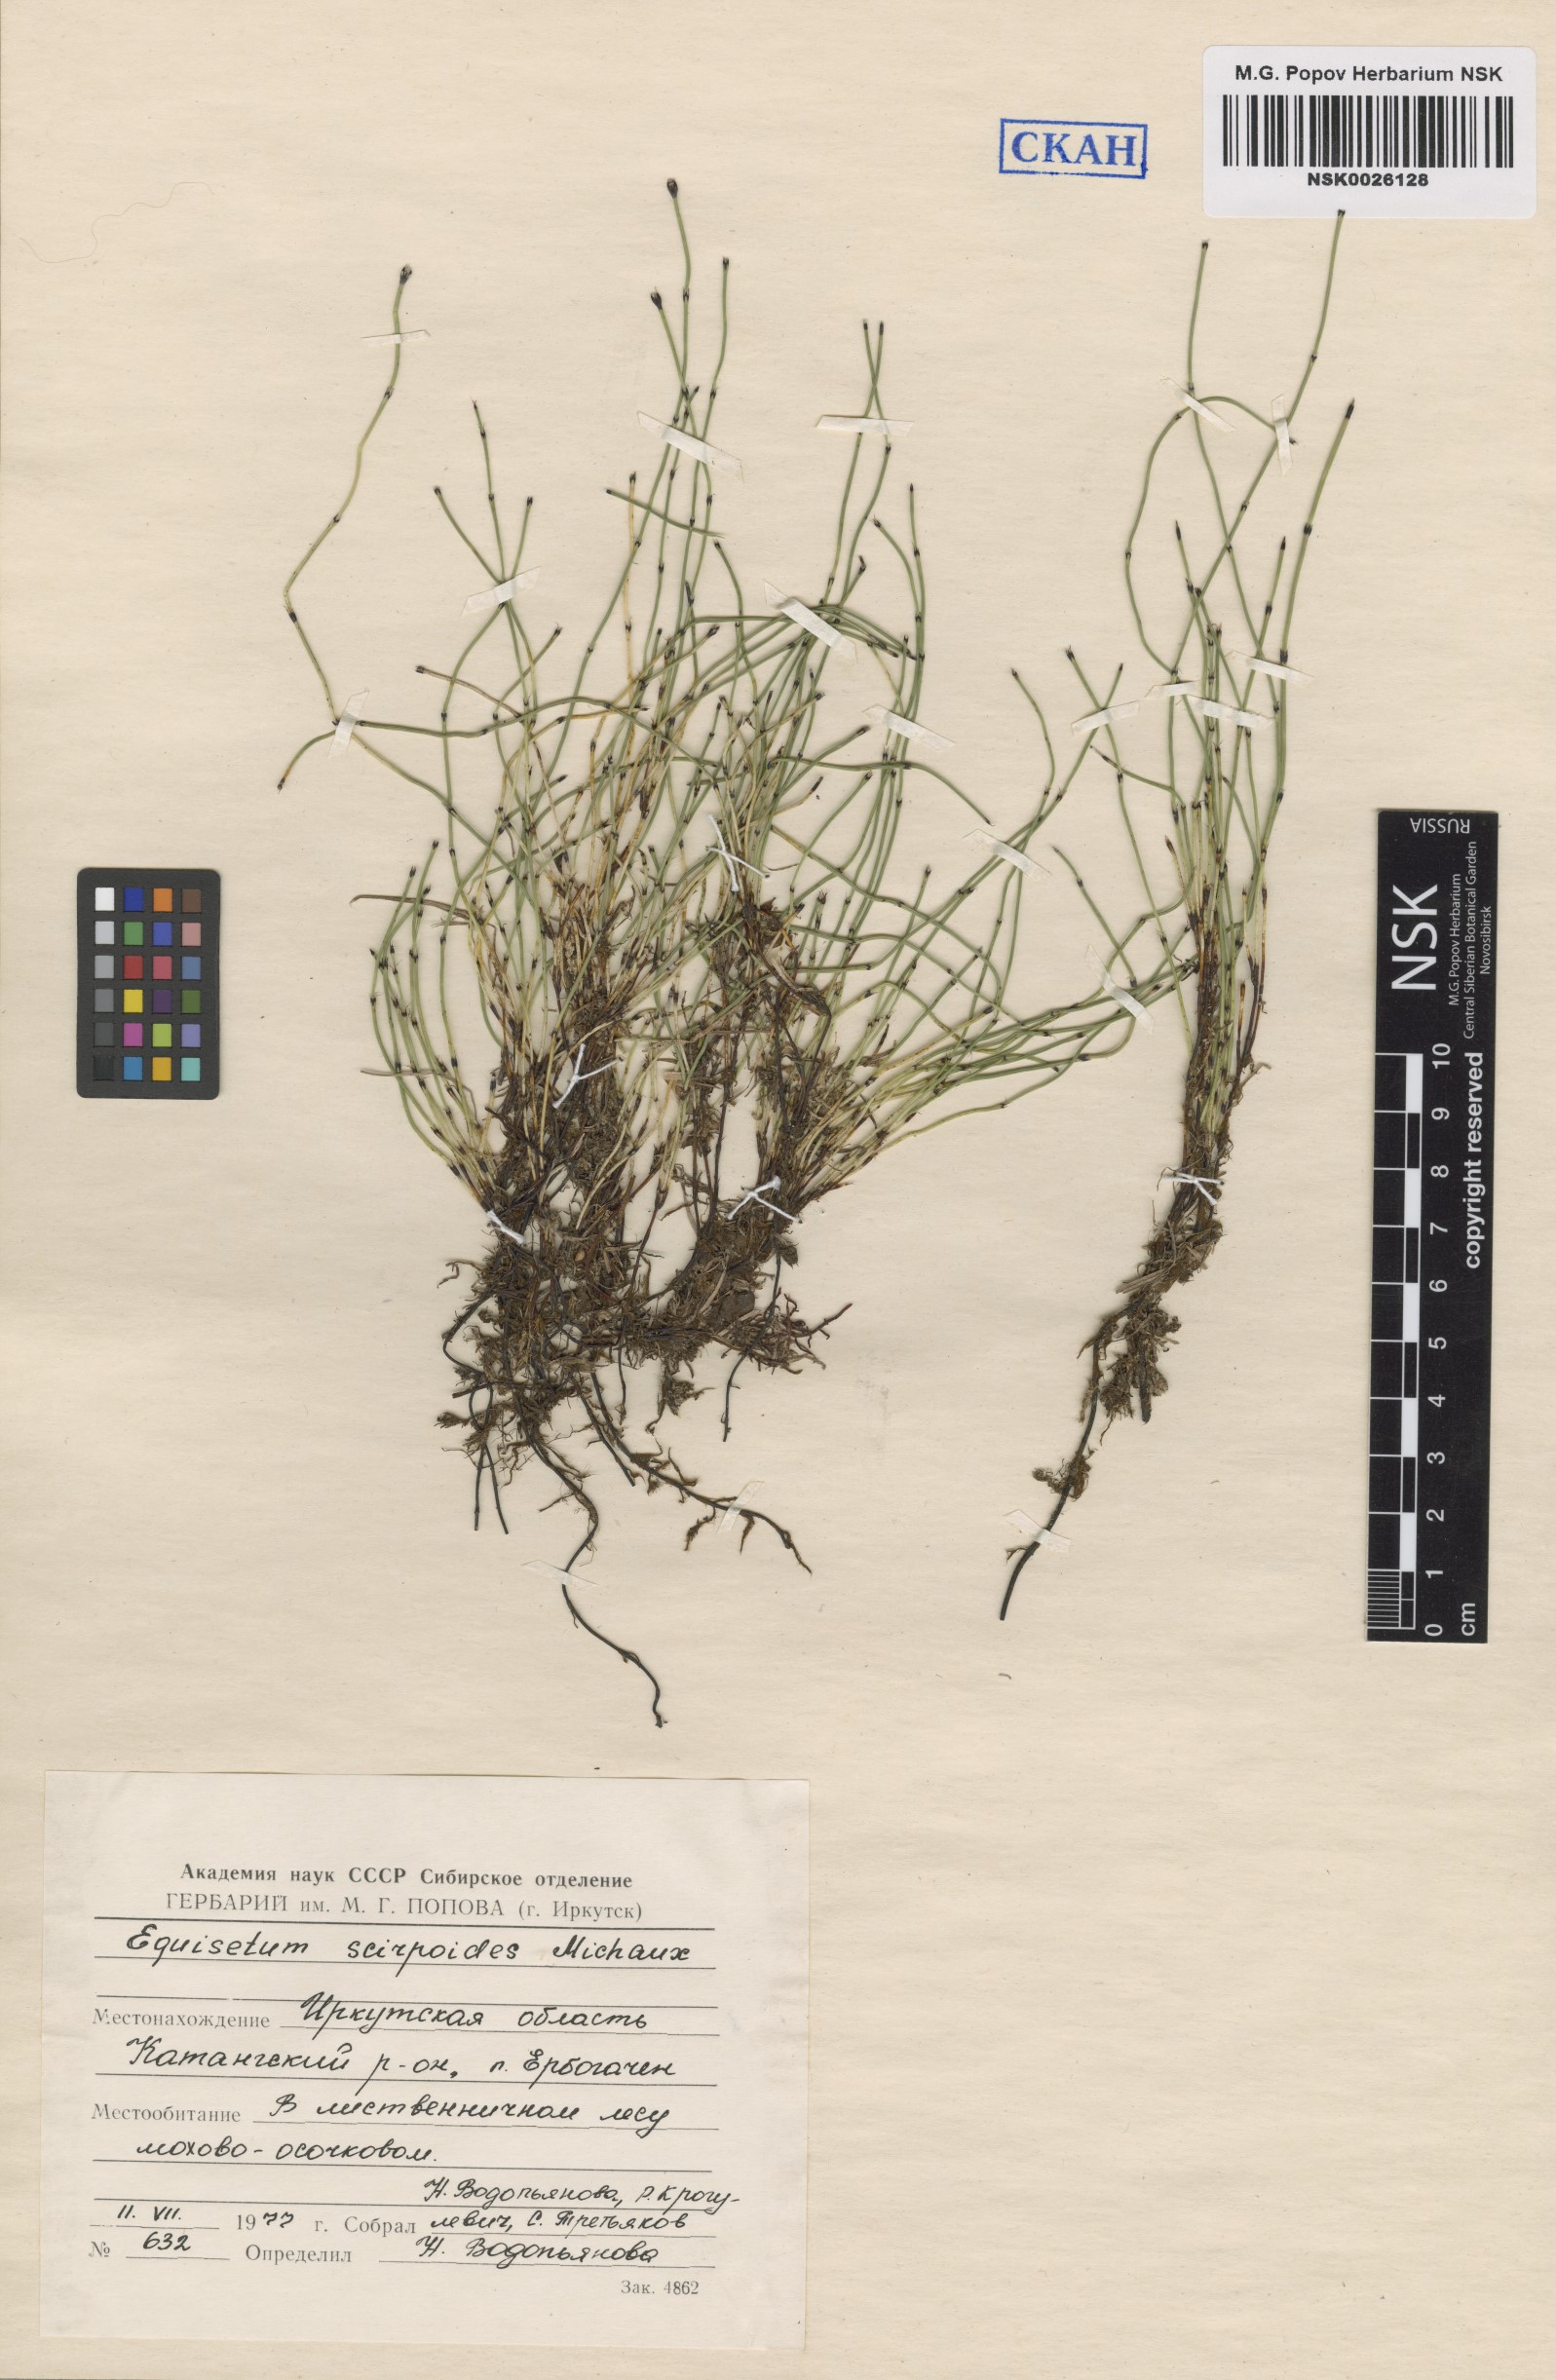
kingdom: Plantae
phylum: Tracheophyta
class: Polypodiopsida
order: Equisetales
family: Equisetaceae
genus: Equisetum
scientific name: Equisetum scirpoides
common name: Delicate horsetail
